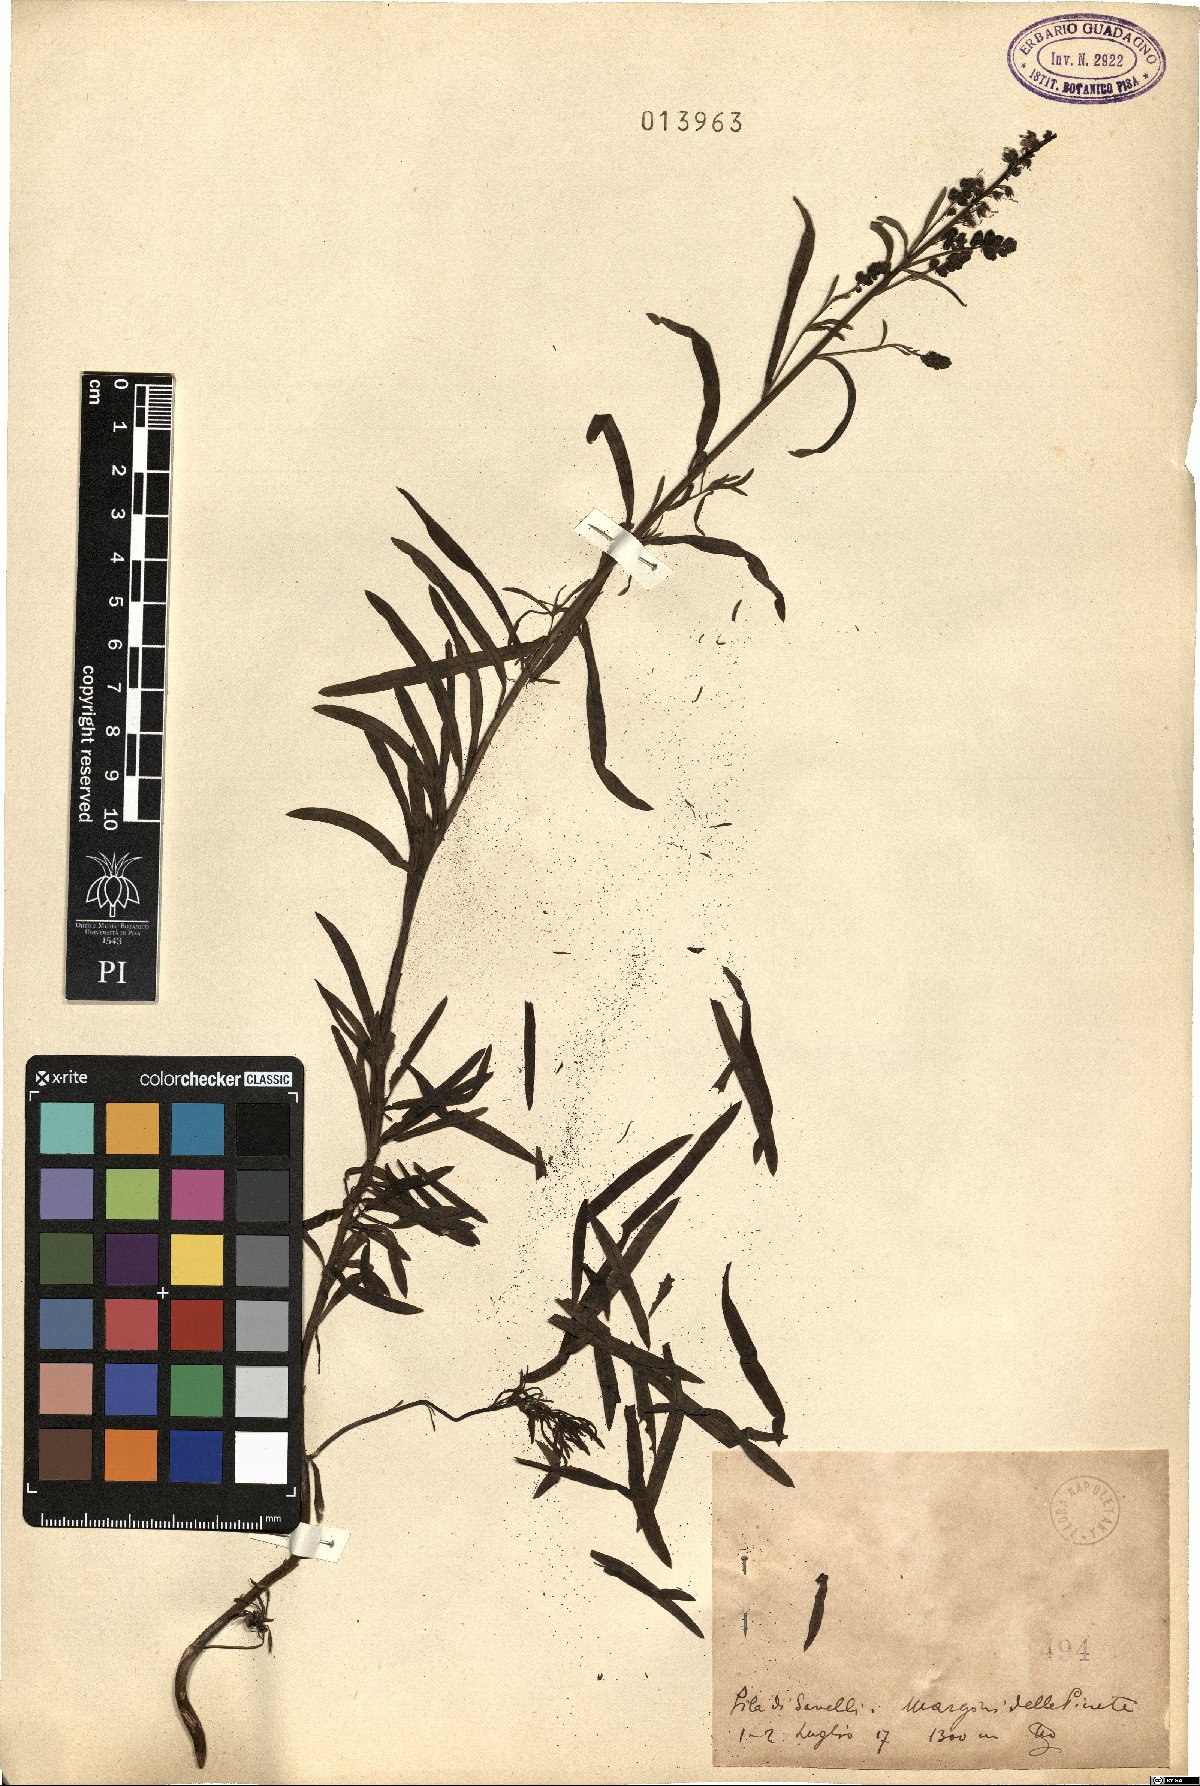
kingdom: Plantae
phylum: Tracheophyta
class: Magnoliopsida
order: Lamiales
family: Plantaginaceae
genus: Linaria
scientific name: Linaria
